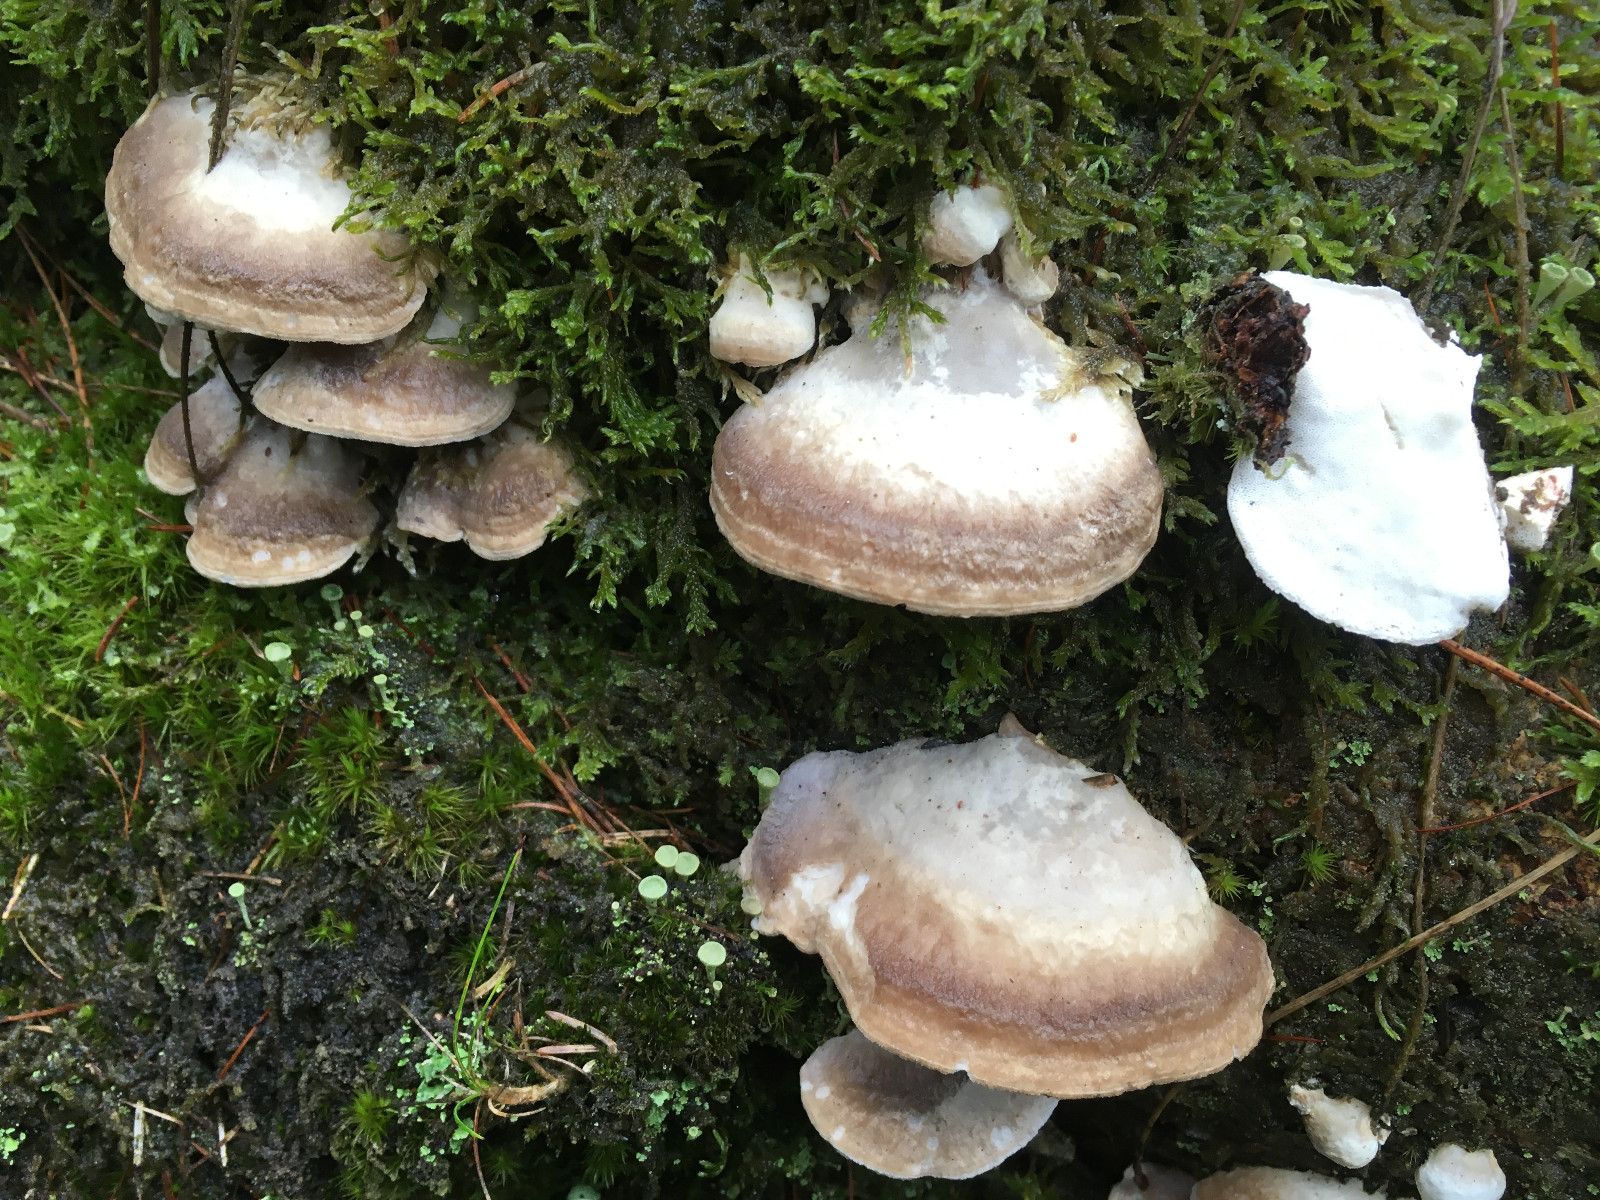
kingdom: Fungi
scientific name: Fungi
